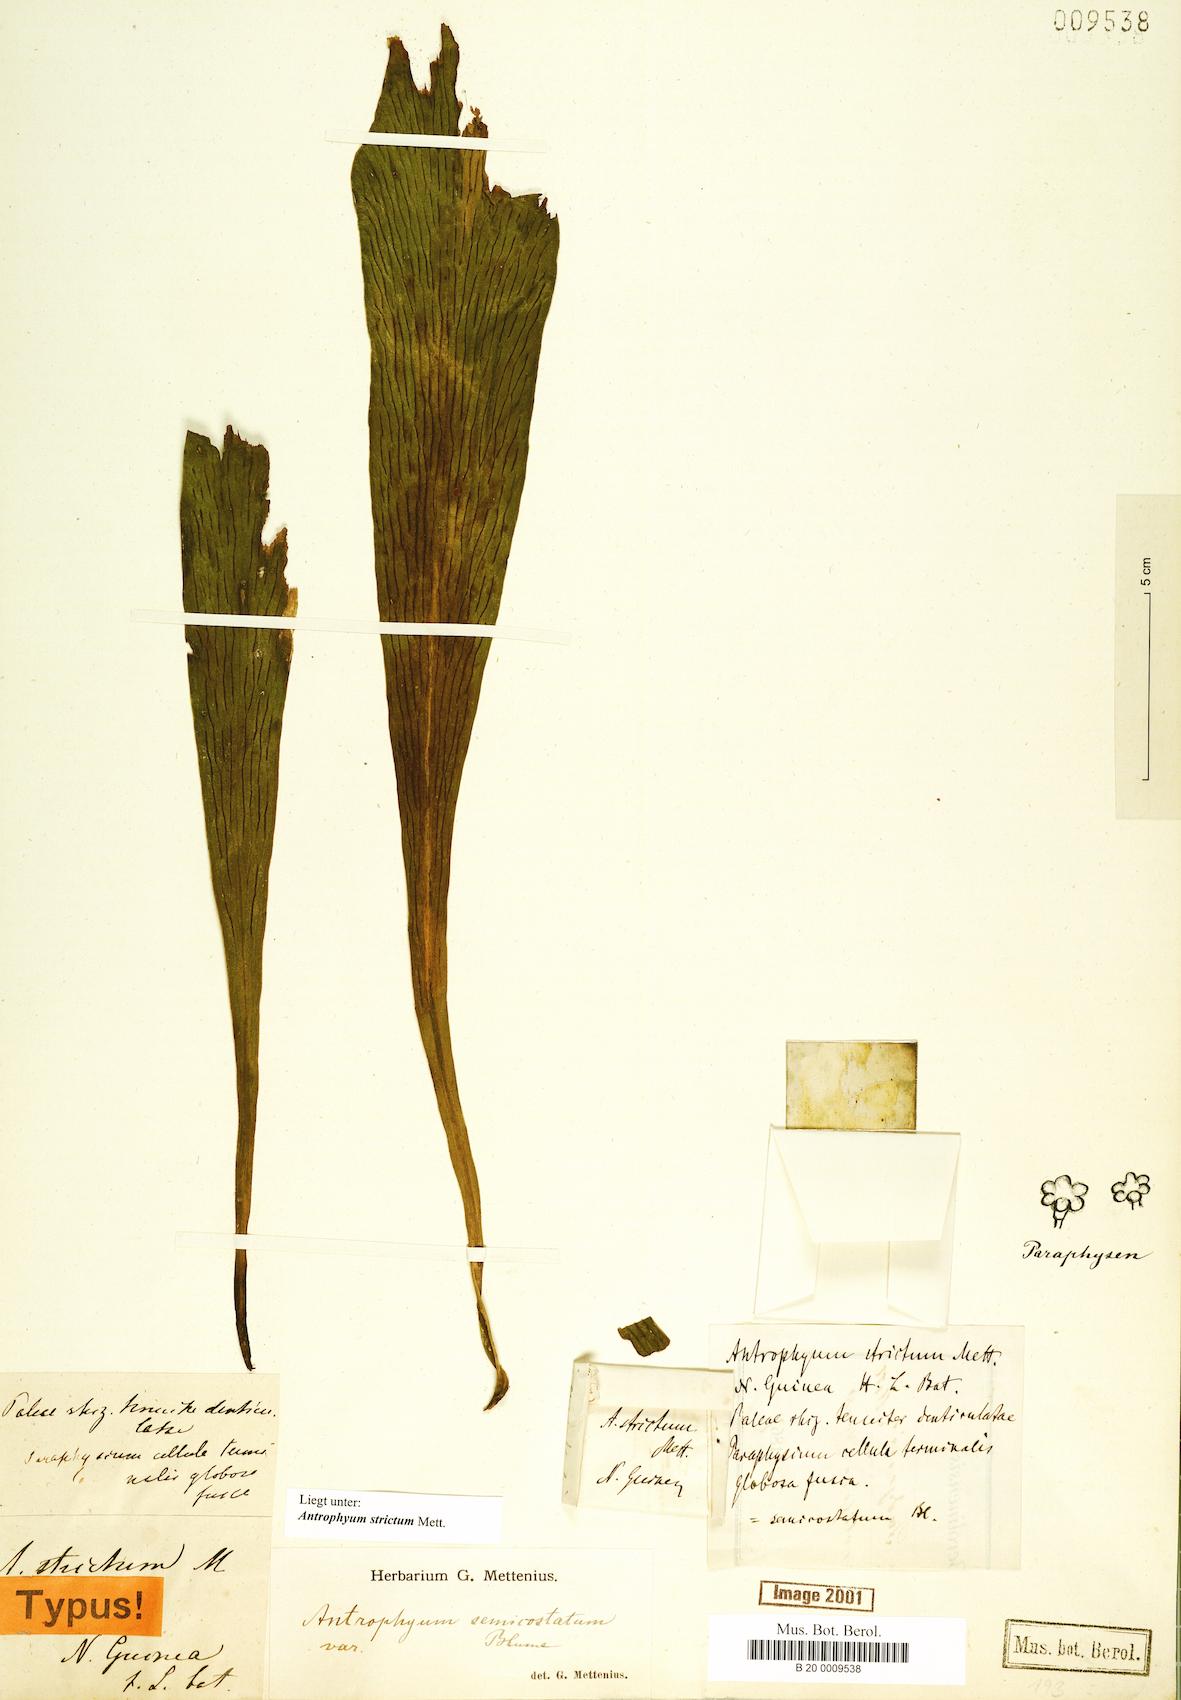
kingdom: Plantae
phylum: Tracheophyta
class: Polypodiopsida
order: Polypodiales
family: Pteridaceae
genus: Antrophyum
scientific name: Antrophyum strictum
